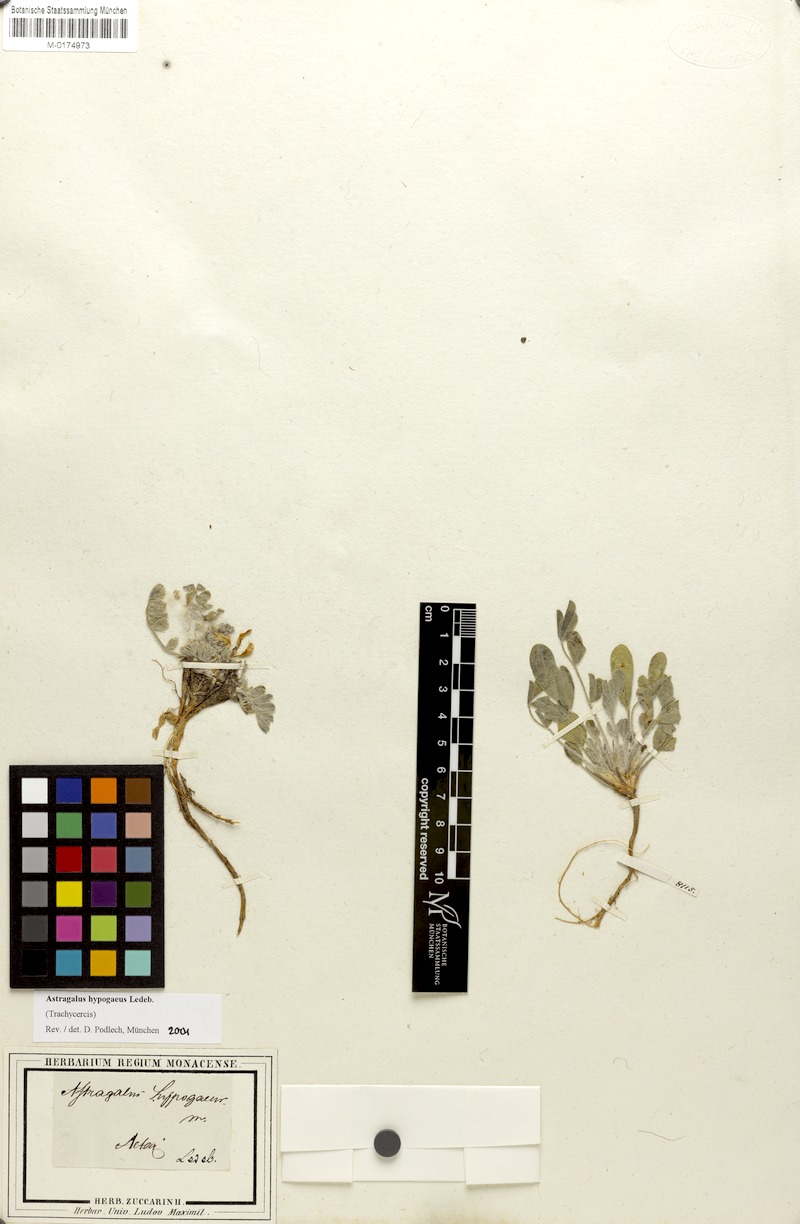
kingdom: Plantae
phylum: Tracheophyta
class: Magnoliopsida
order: Fabales
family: Fabaceae
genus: Astragalus
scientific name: Astragalus hypogaeus
